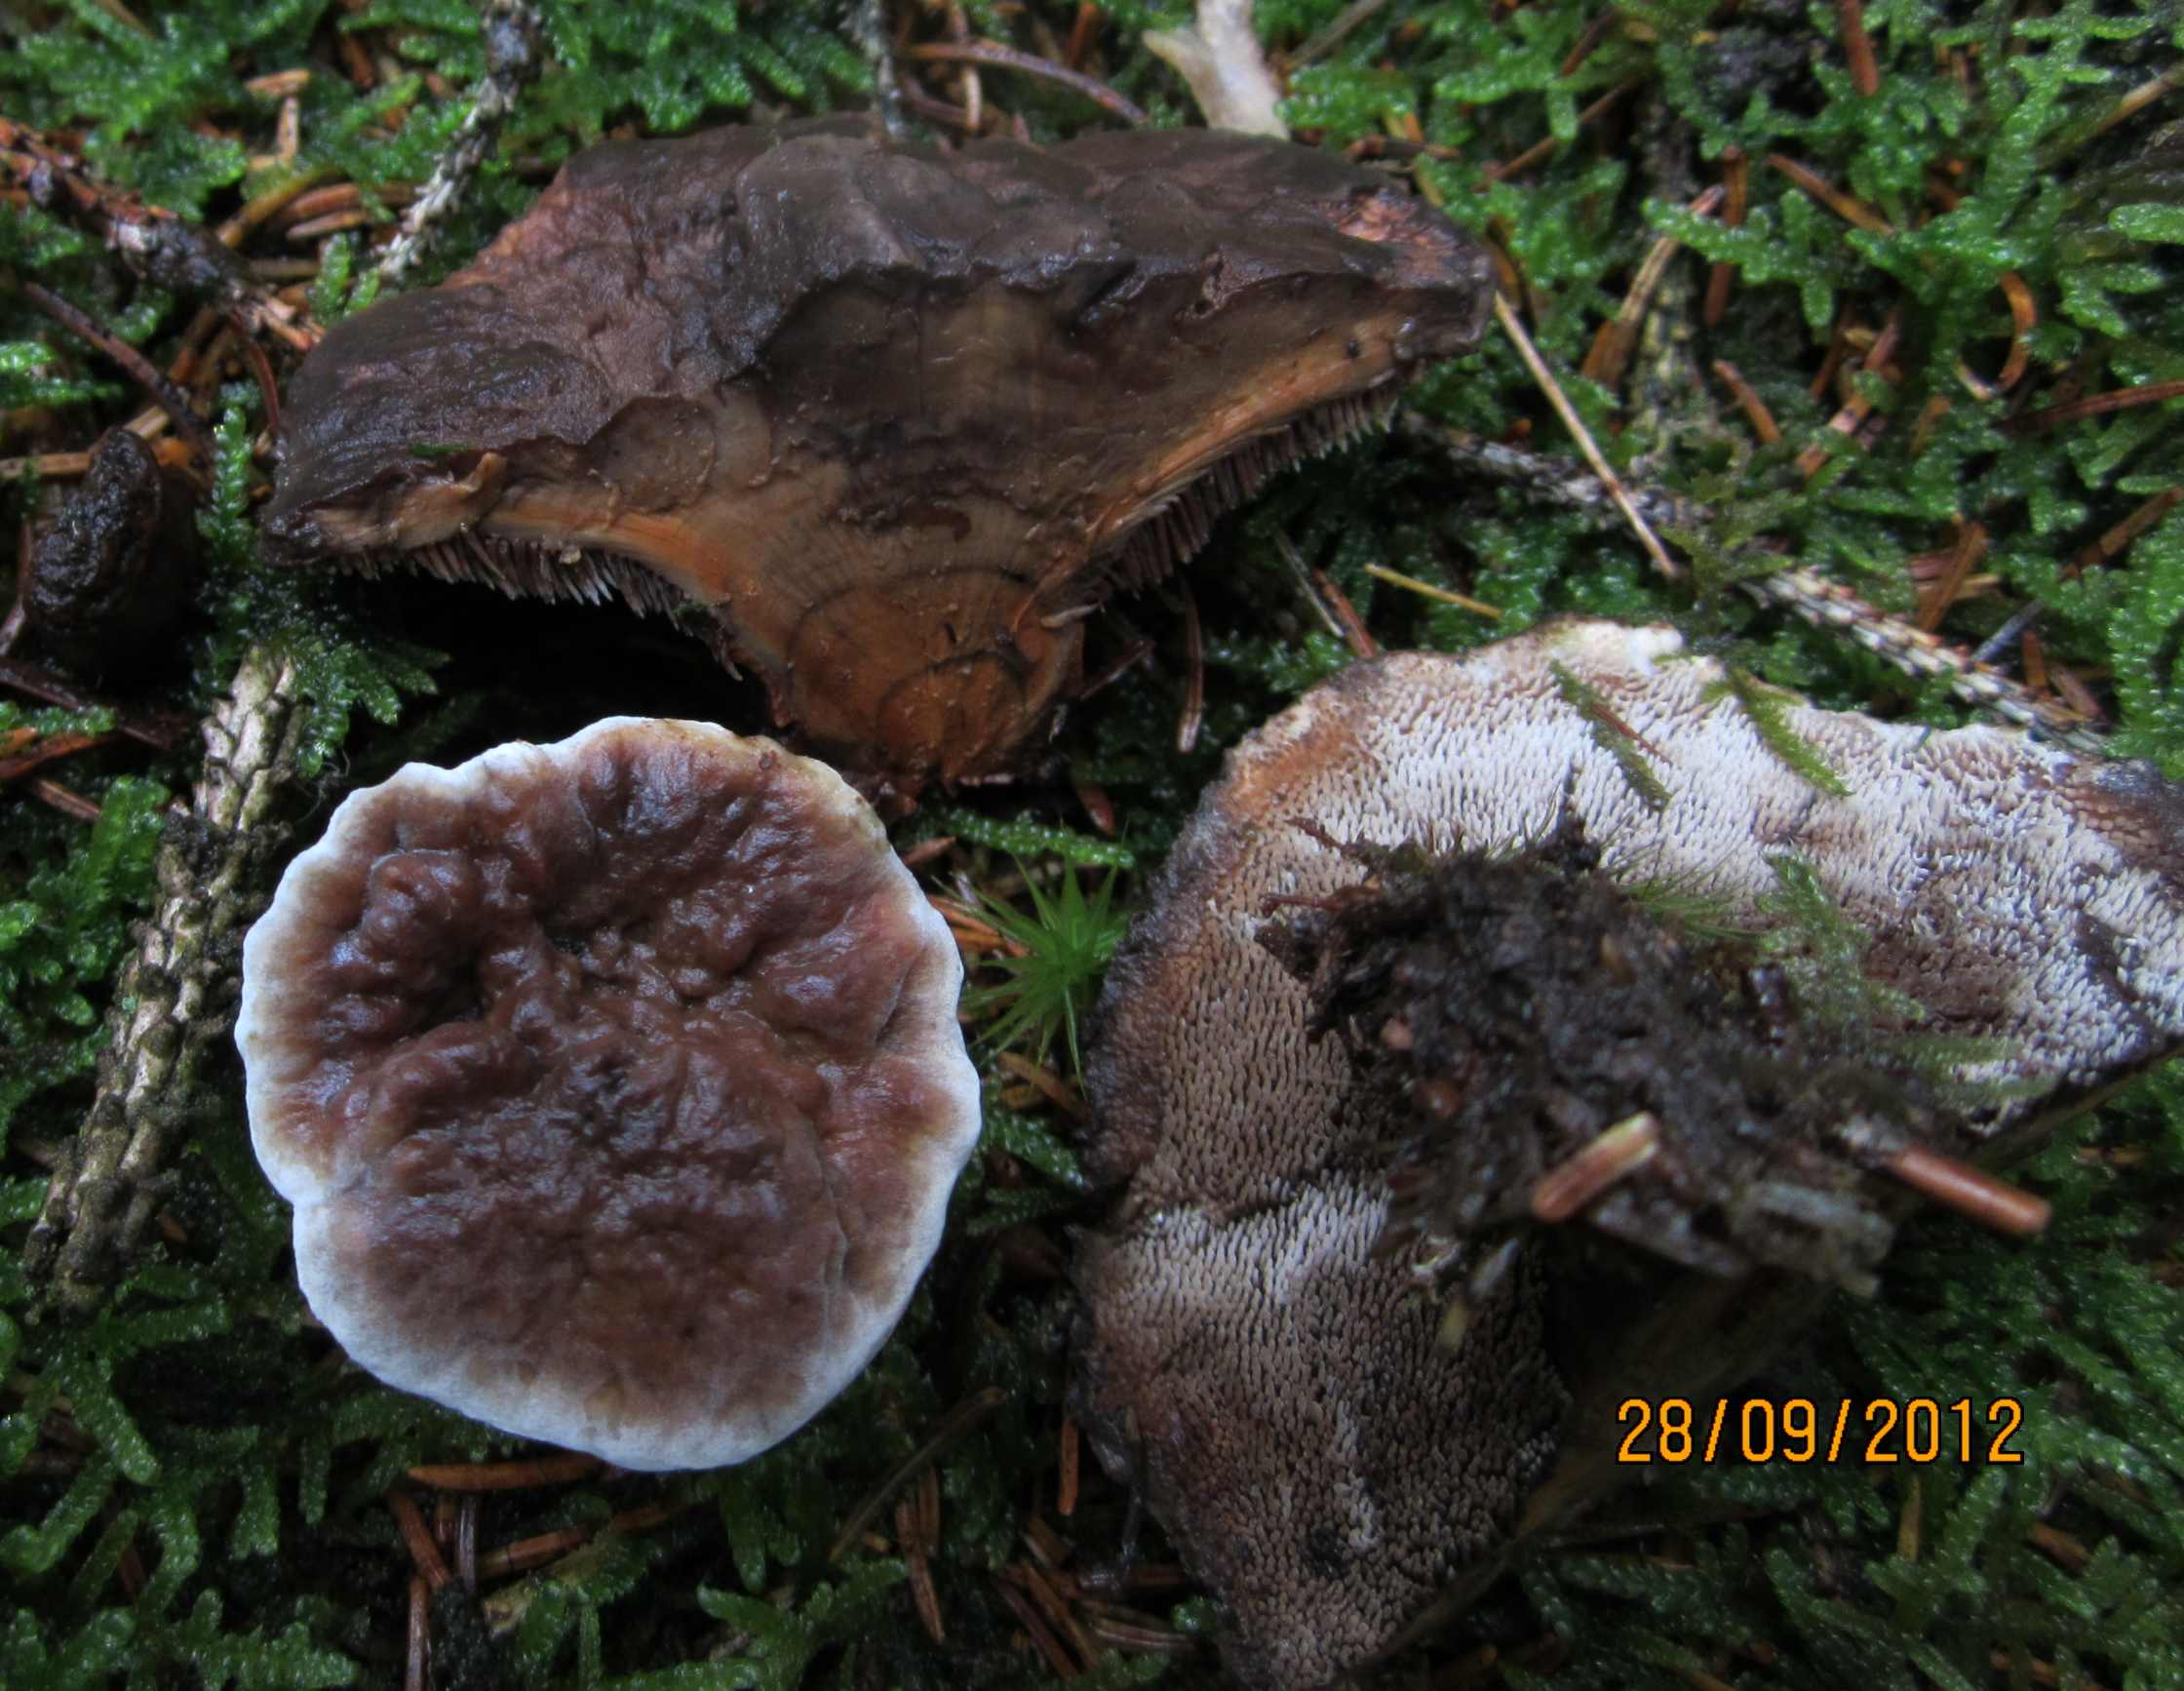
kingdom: Fungi
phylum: Basidiomycota
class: Agaricomycetes
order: Thelephorales
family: Bankeraceae
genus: Hydnellum
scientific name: Hydnellum aurantiacum
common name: orange korkpigsvamp
